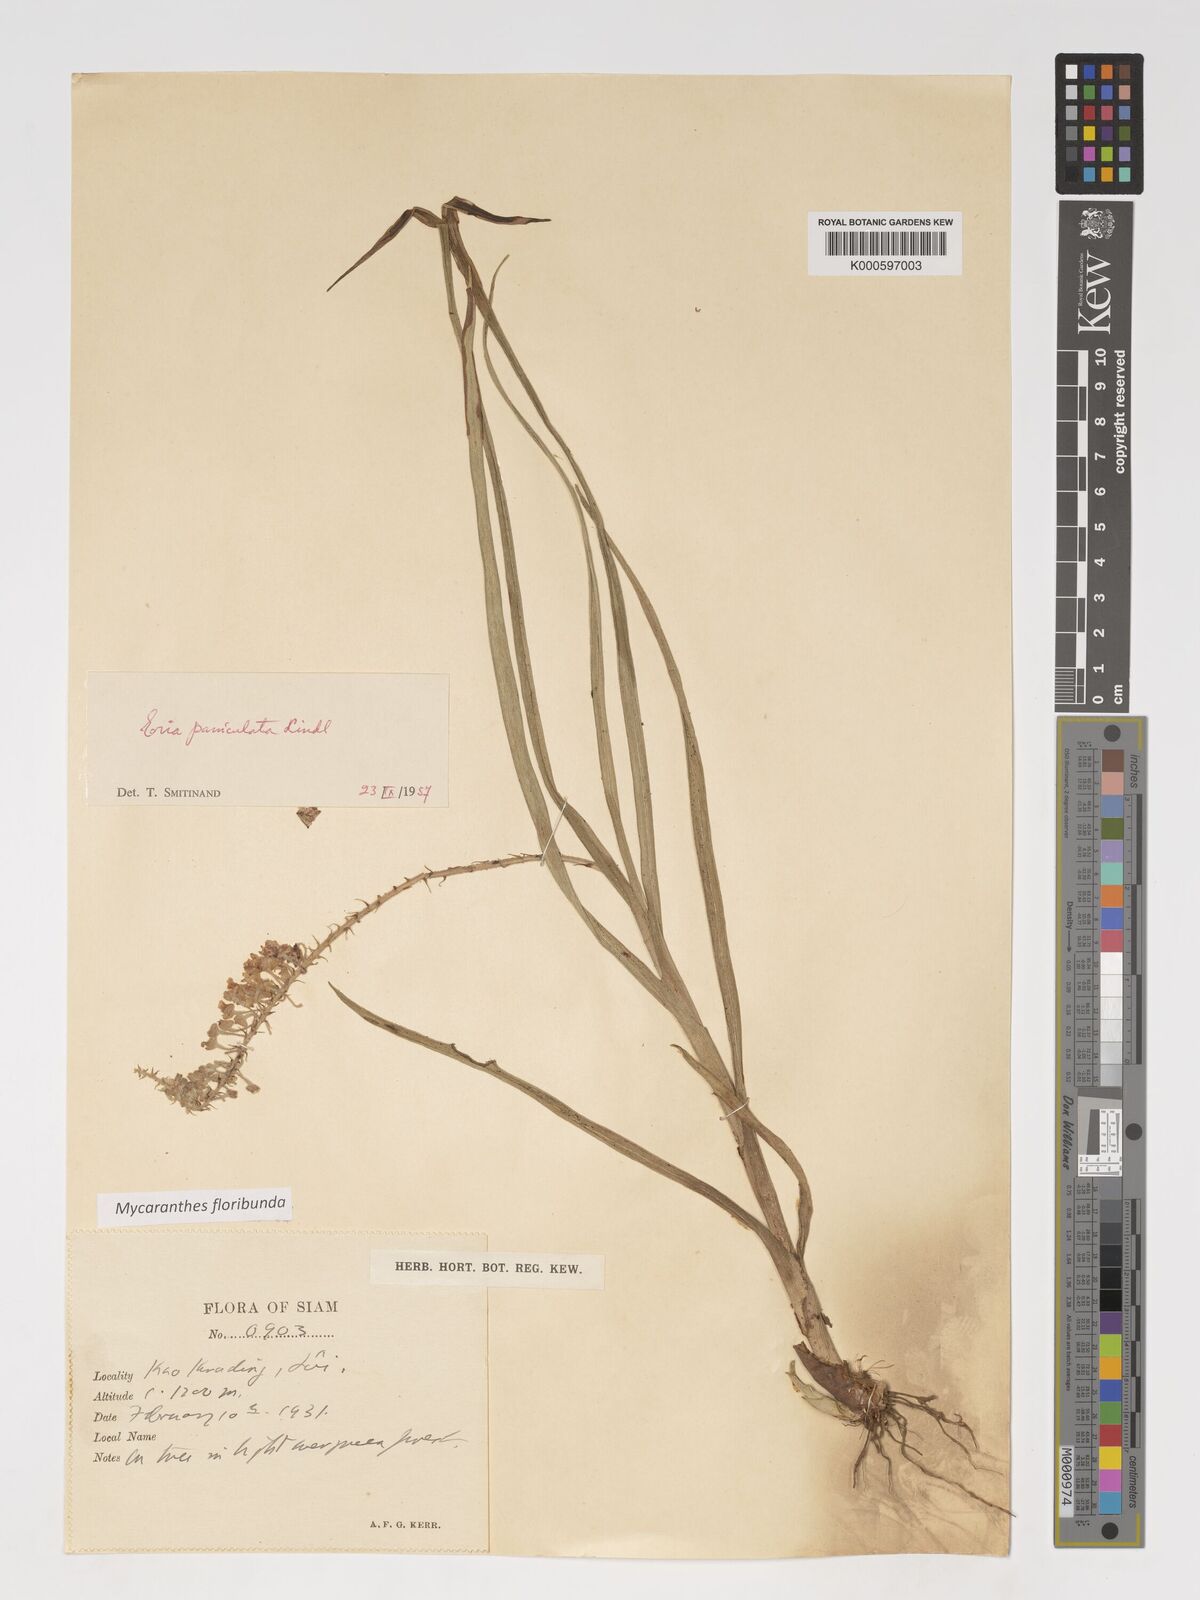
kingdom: Plantae
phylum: Tracheophyta
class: Liliopsida
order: Asparagales
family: Orchidaceae
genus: Mycaranthes
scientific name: Mycaranthes floribunda
